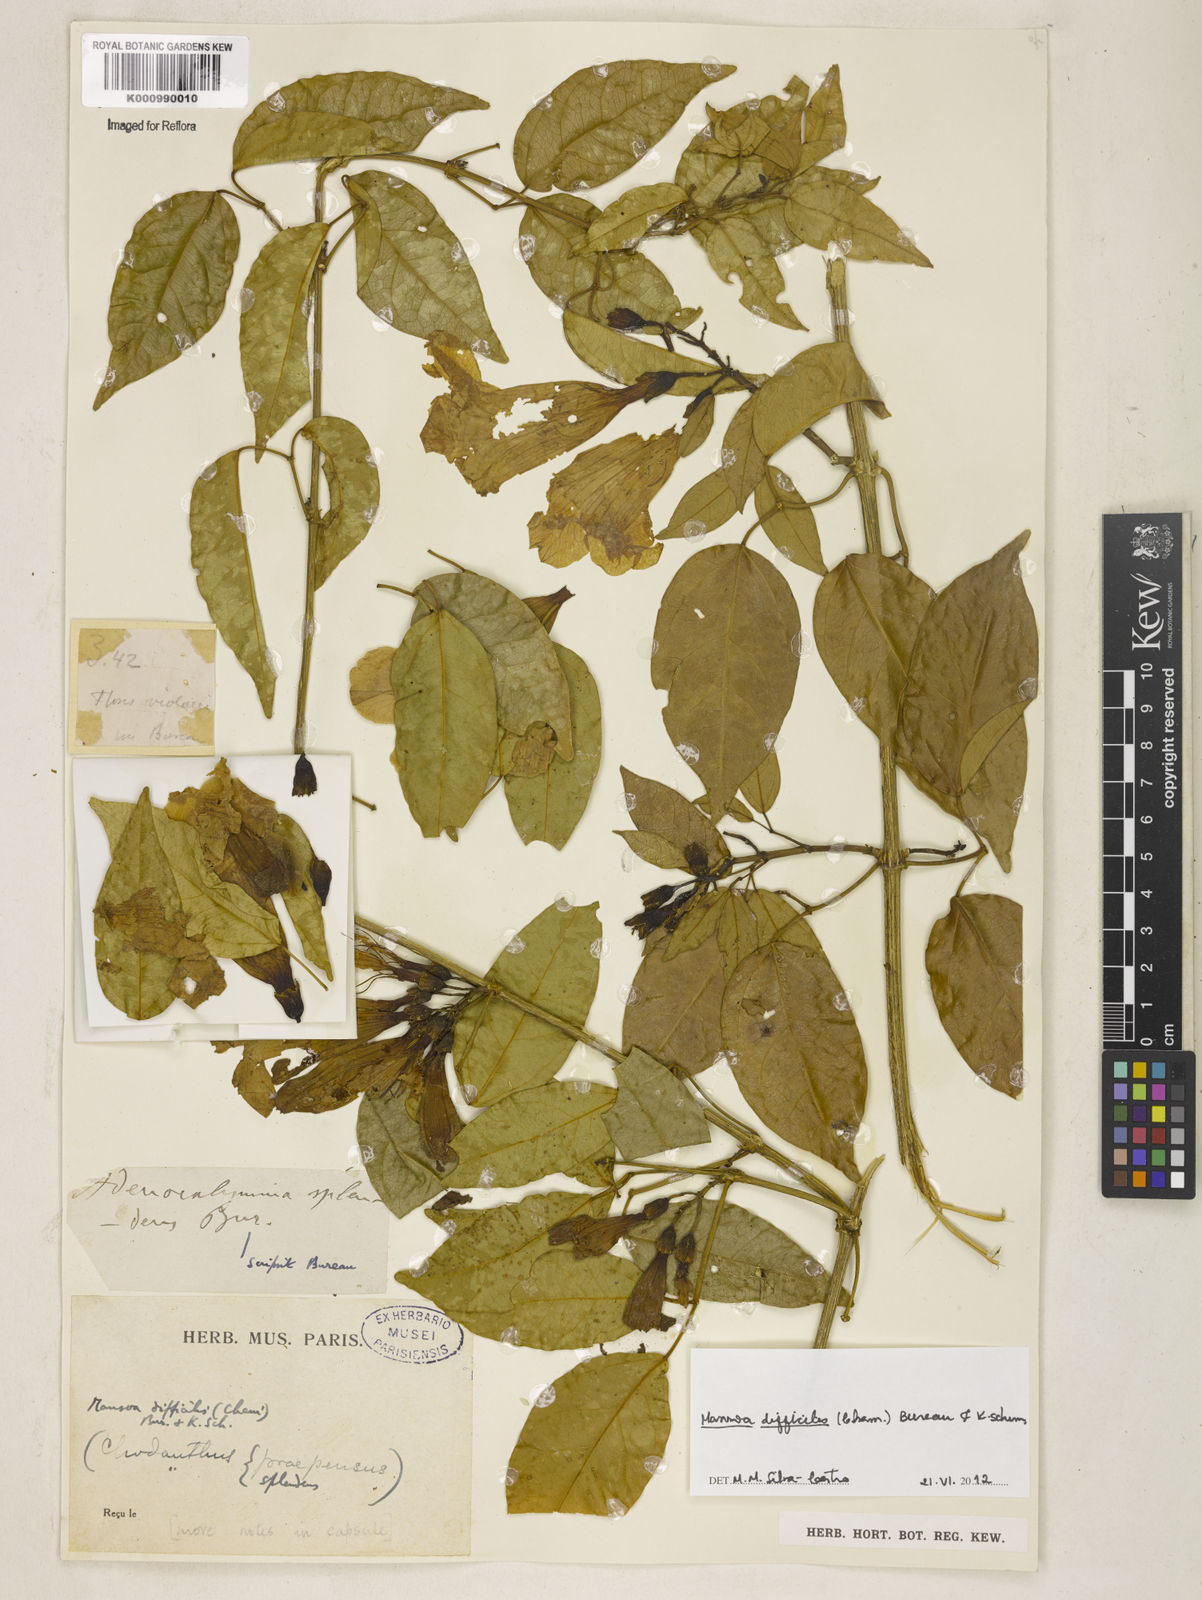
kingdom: Plantae
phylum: Tracheophyta
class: Magnoliopsida
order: Lamiales
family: Bignoniaceae
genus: Mansoa
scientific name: Mansoa difficilis
